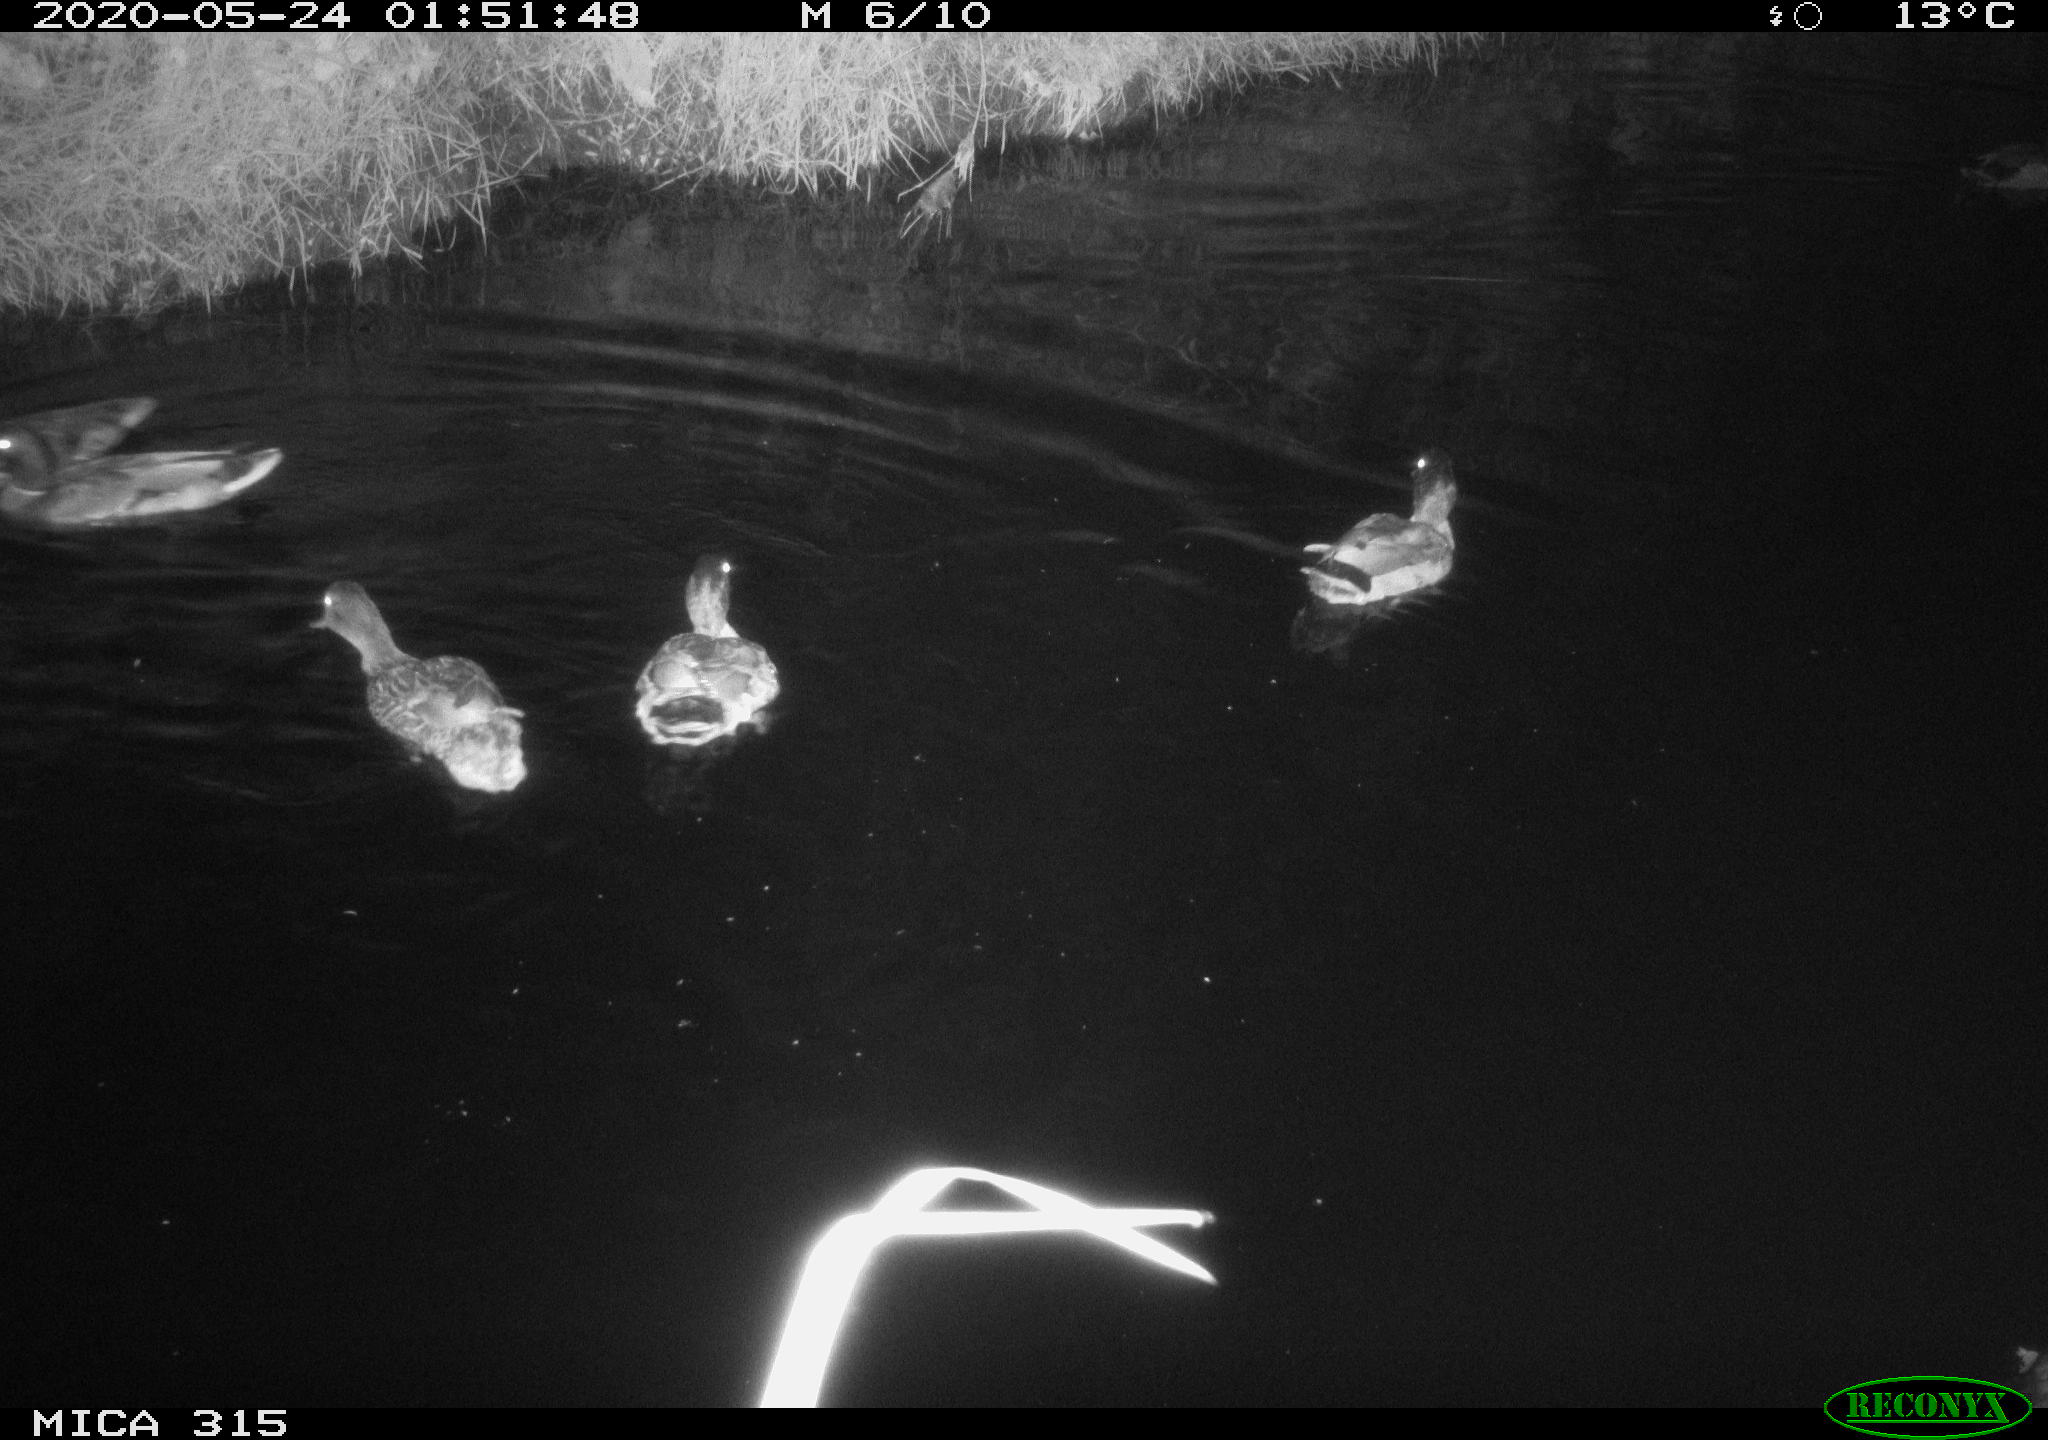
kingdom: Animalia
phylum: Chordata
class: Aves
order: Anseriformes
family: Anatidae
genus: Anas
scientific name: Anas platyrhynchos
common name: Mallard
